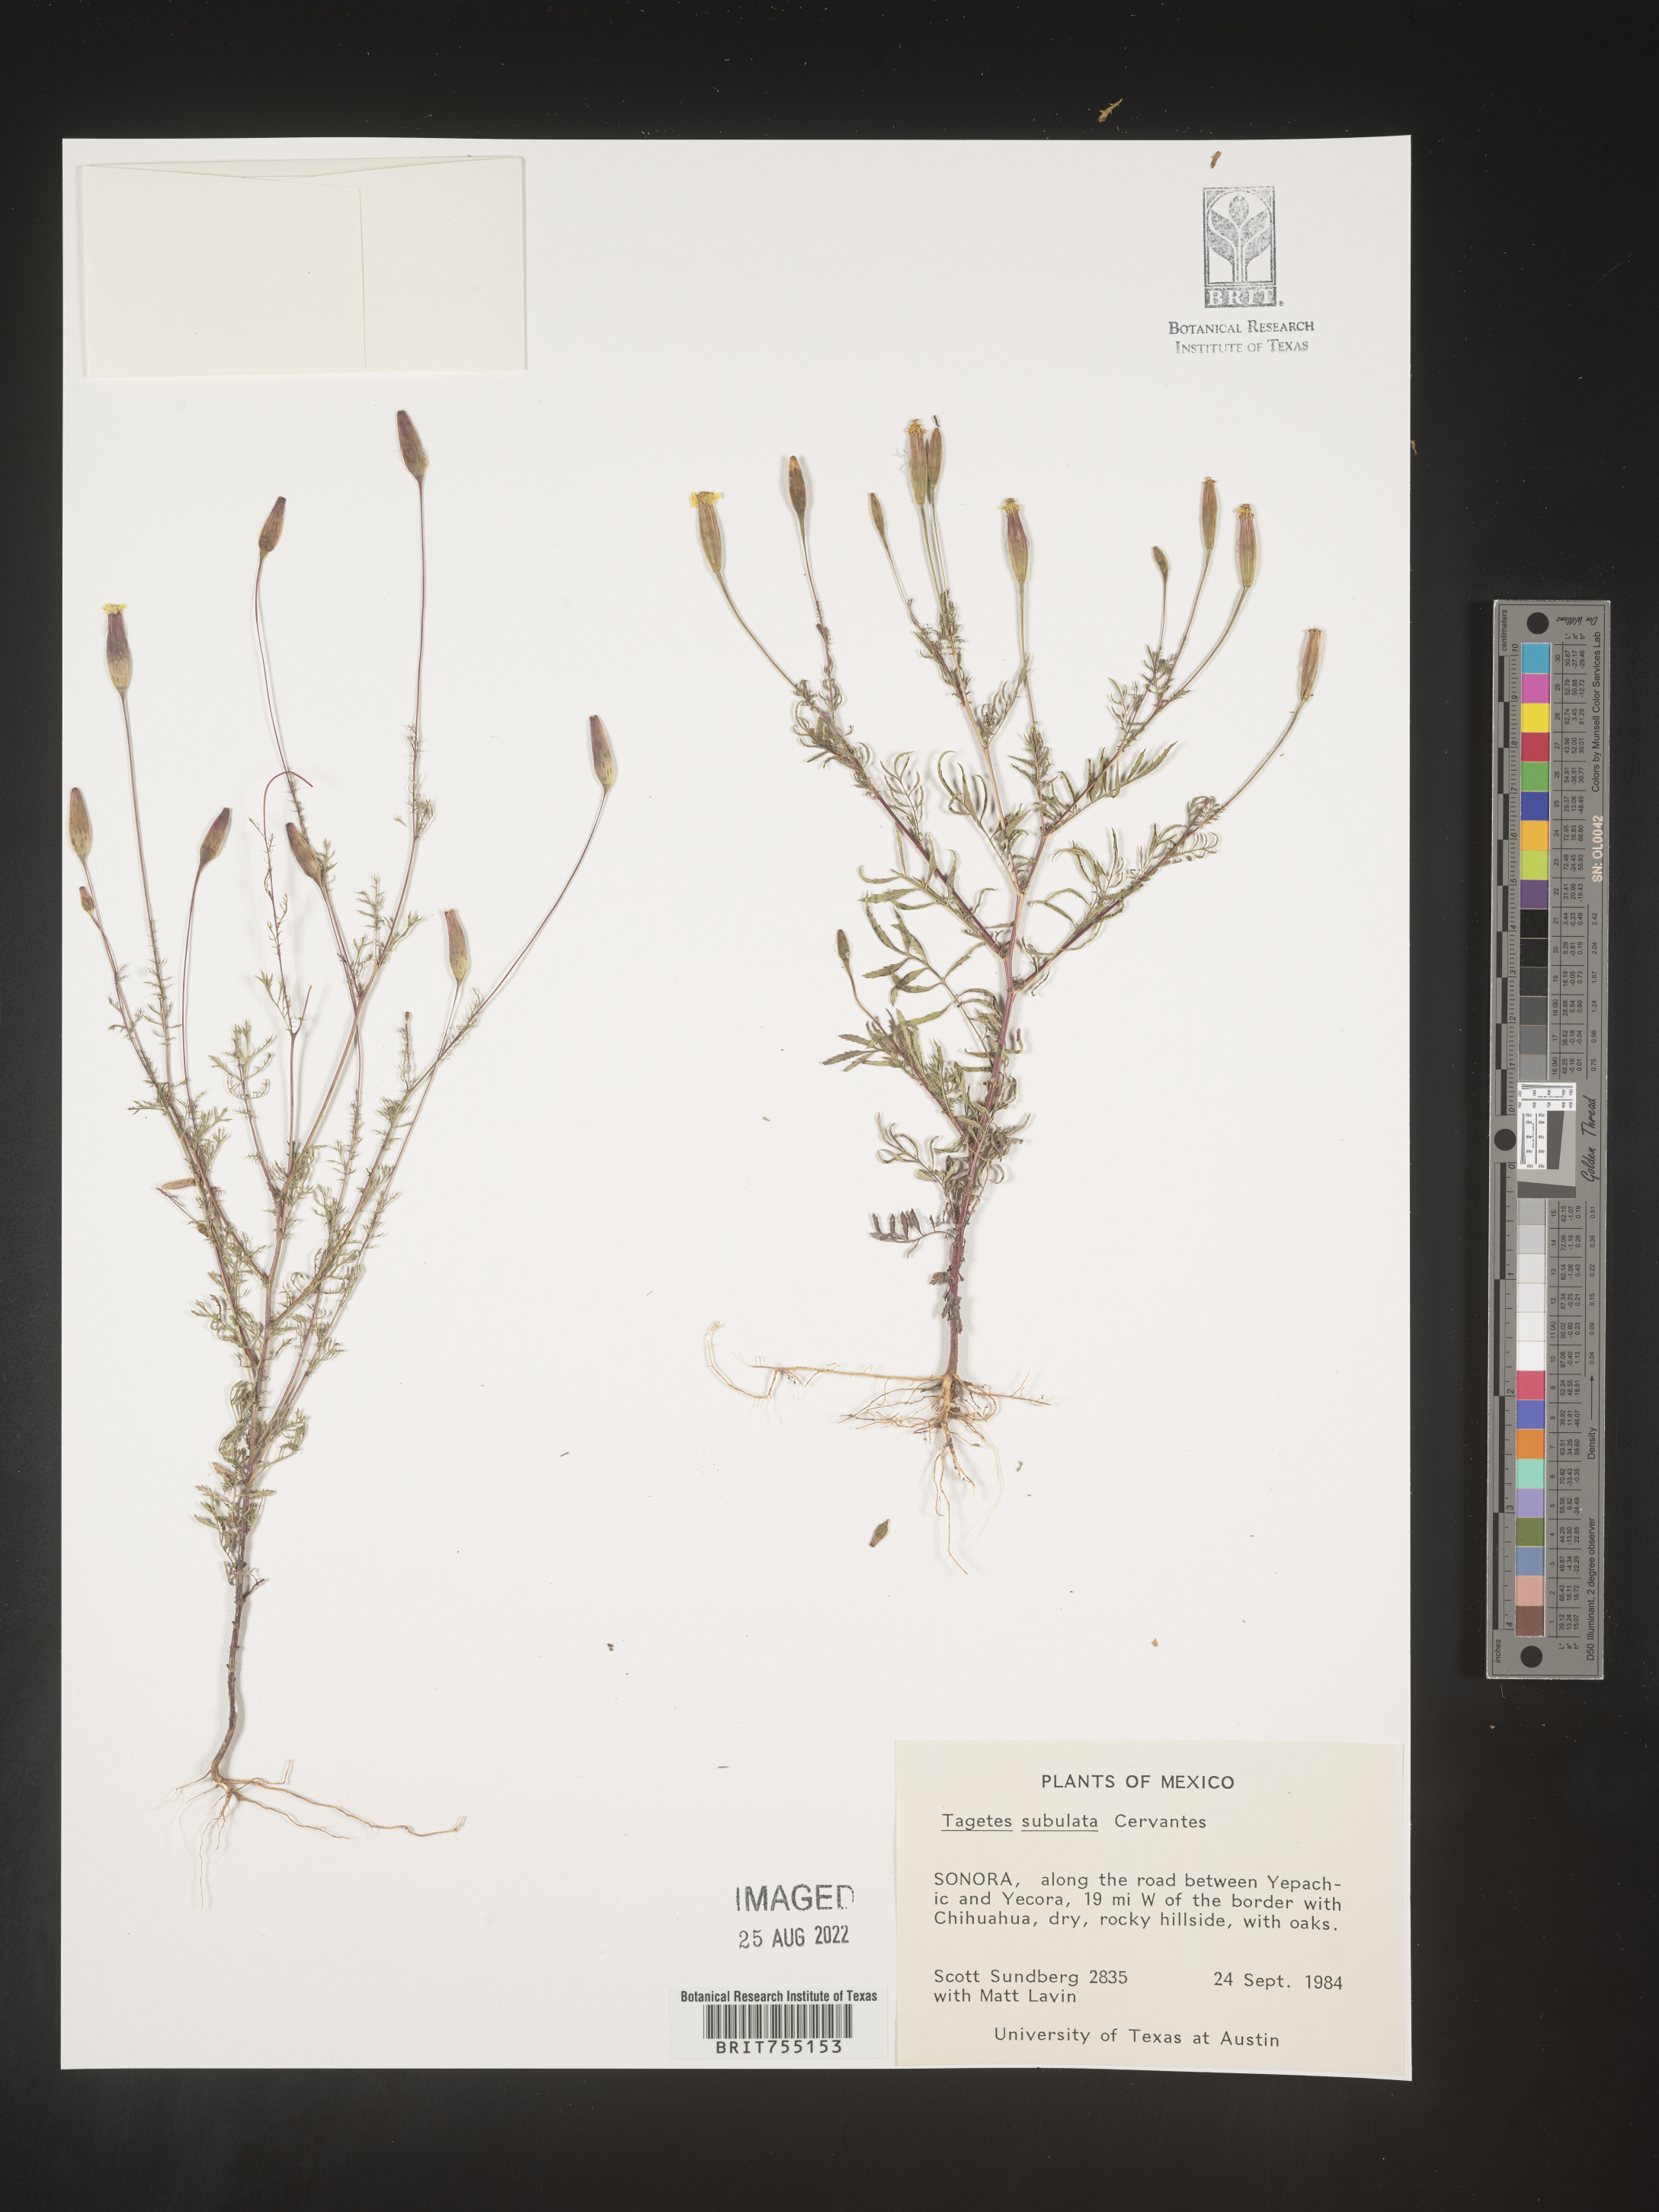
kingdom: Plantae
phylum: Tracheophyta
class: Magnoliopsida
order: Asterales
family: Asteraceae
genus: Tagetes
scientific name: Tagetes
